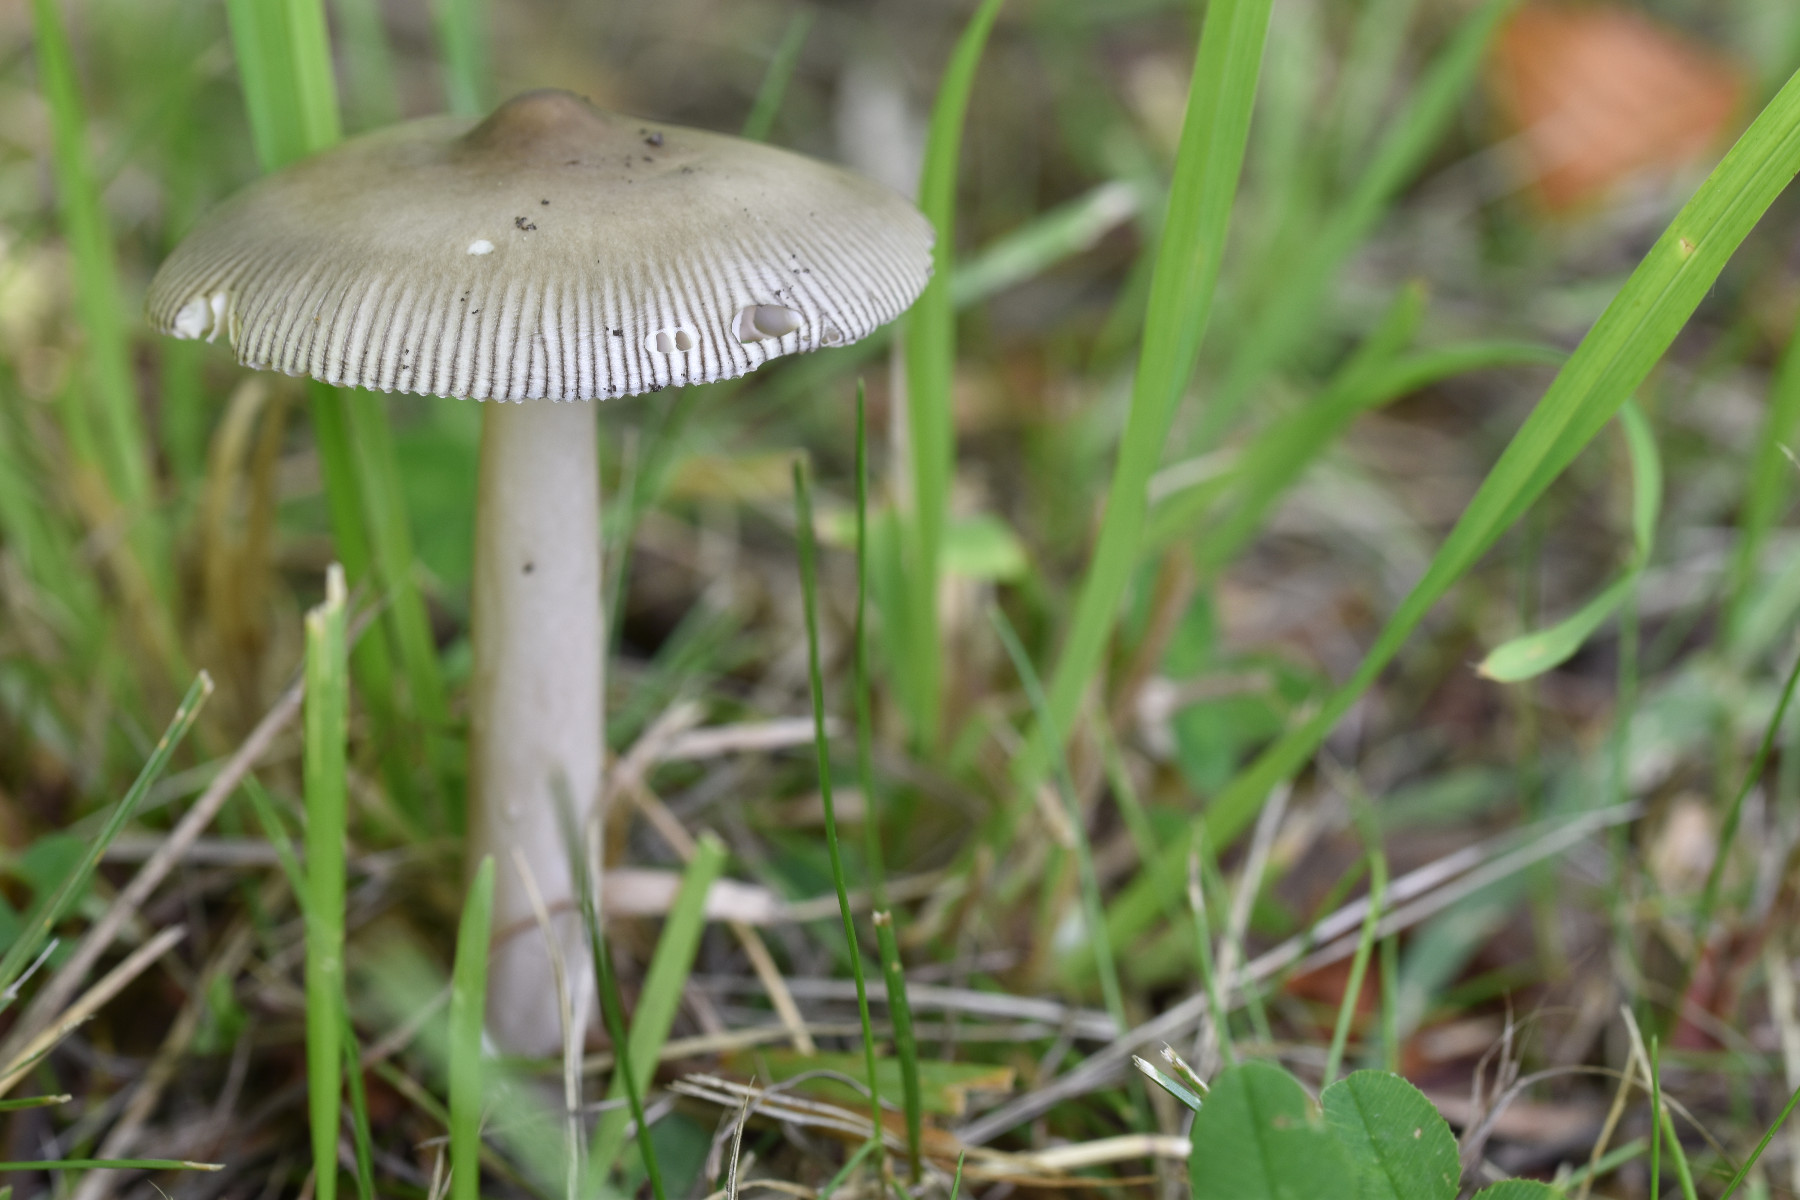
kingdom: Fungi
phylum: Basidiomycota
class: Agaricomycetes
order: Agaricales
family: Amanitaceae
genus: Amanita
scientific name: Amanita vaginata
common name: grå kam-fluesvamp
